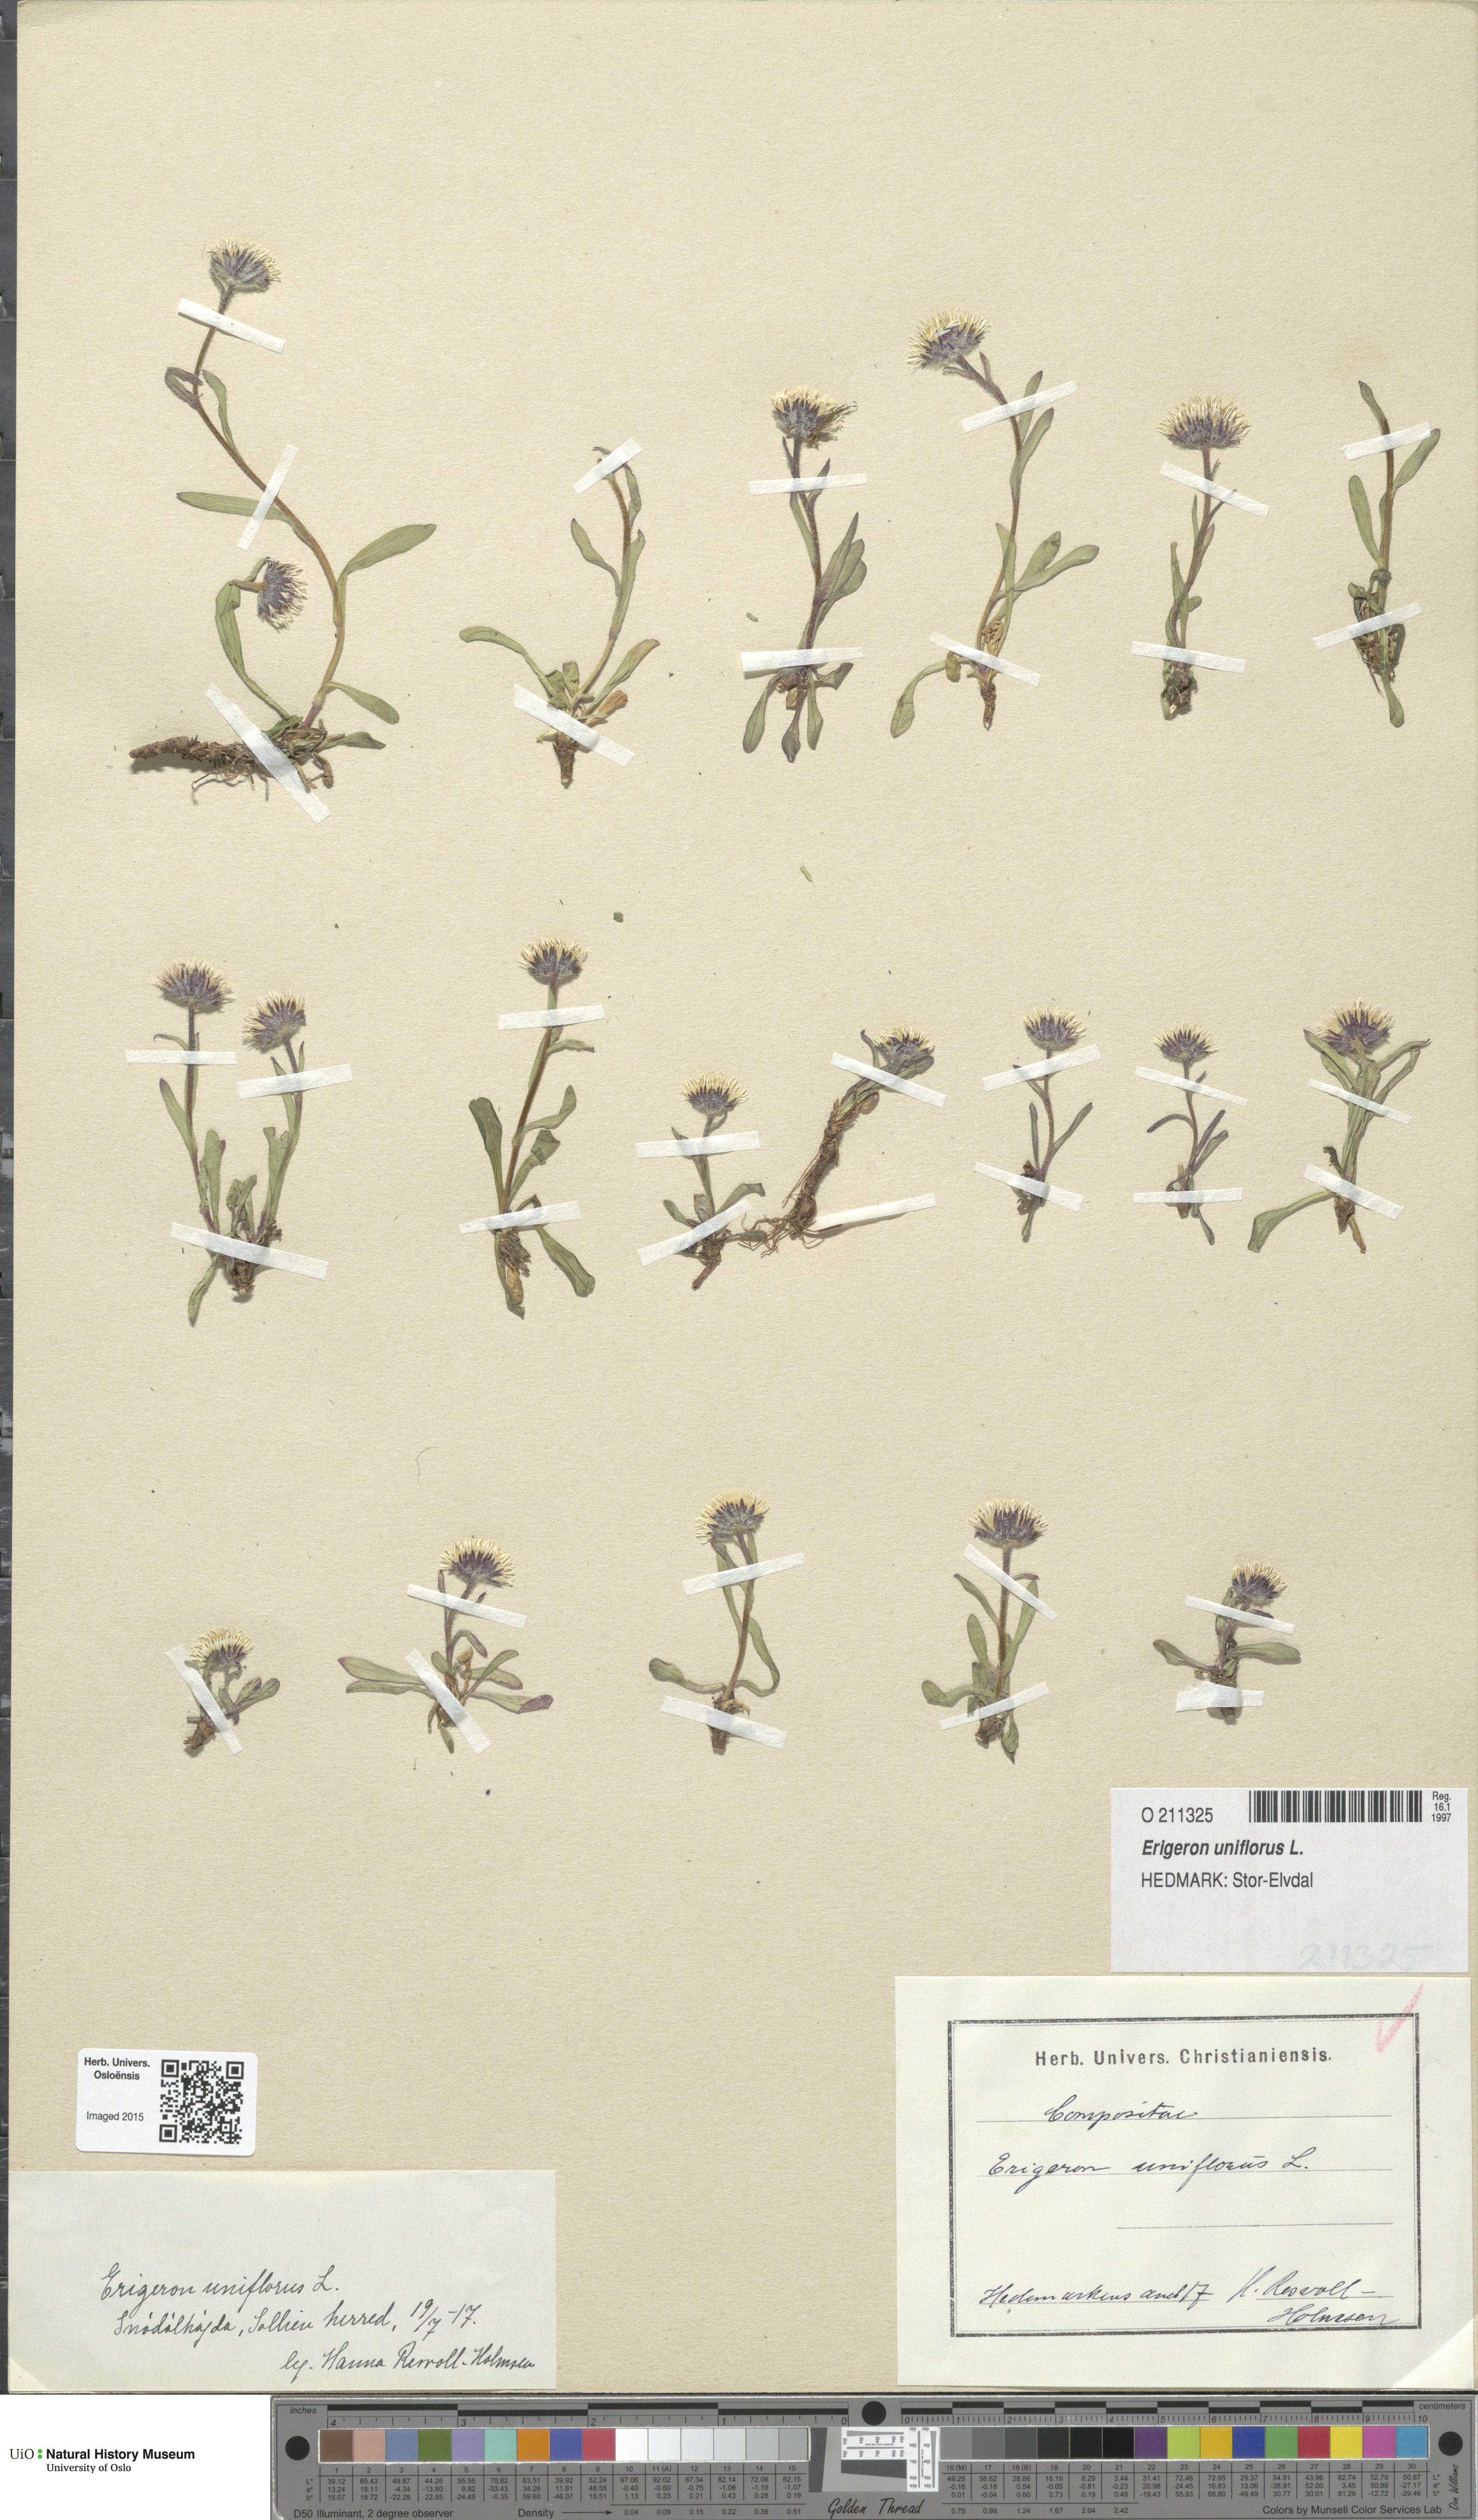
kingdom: Plantae
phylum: Tracheophyta
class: Magnoliopsida
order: Asterales
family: Asteraceae
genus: Erigeron
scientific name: Erigeron uniflorus
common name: Northern daisy
